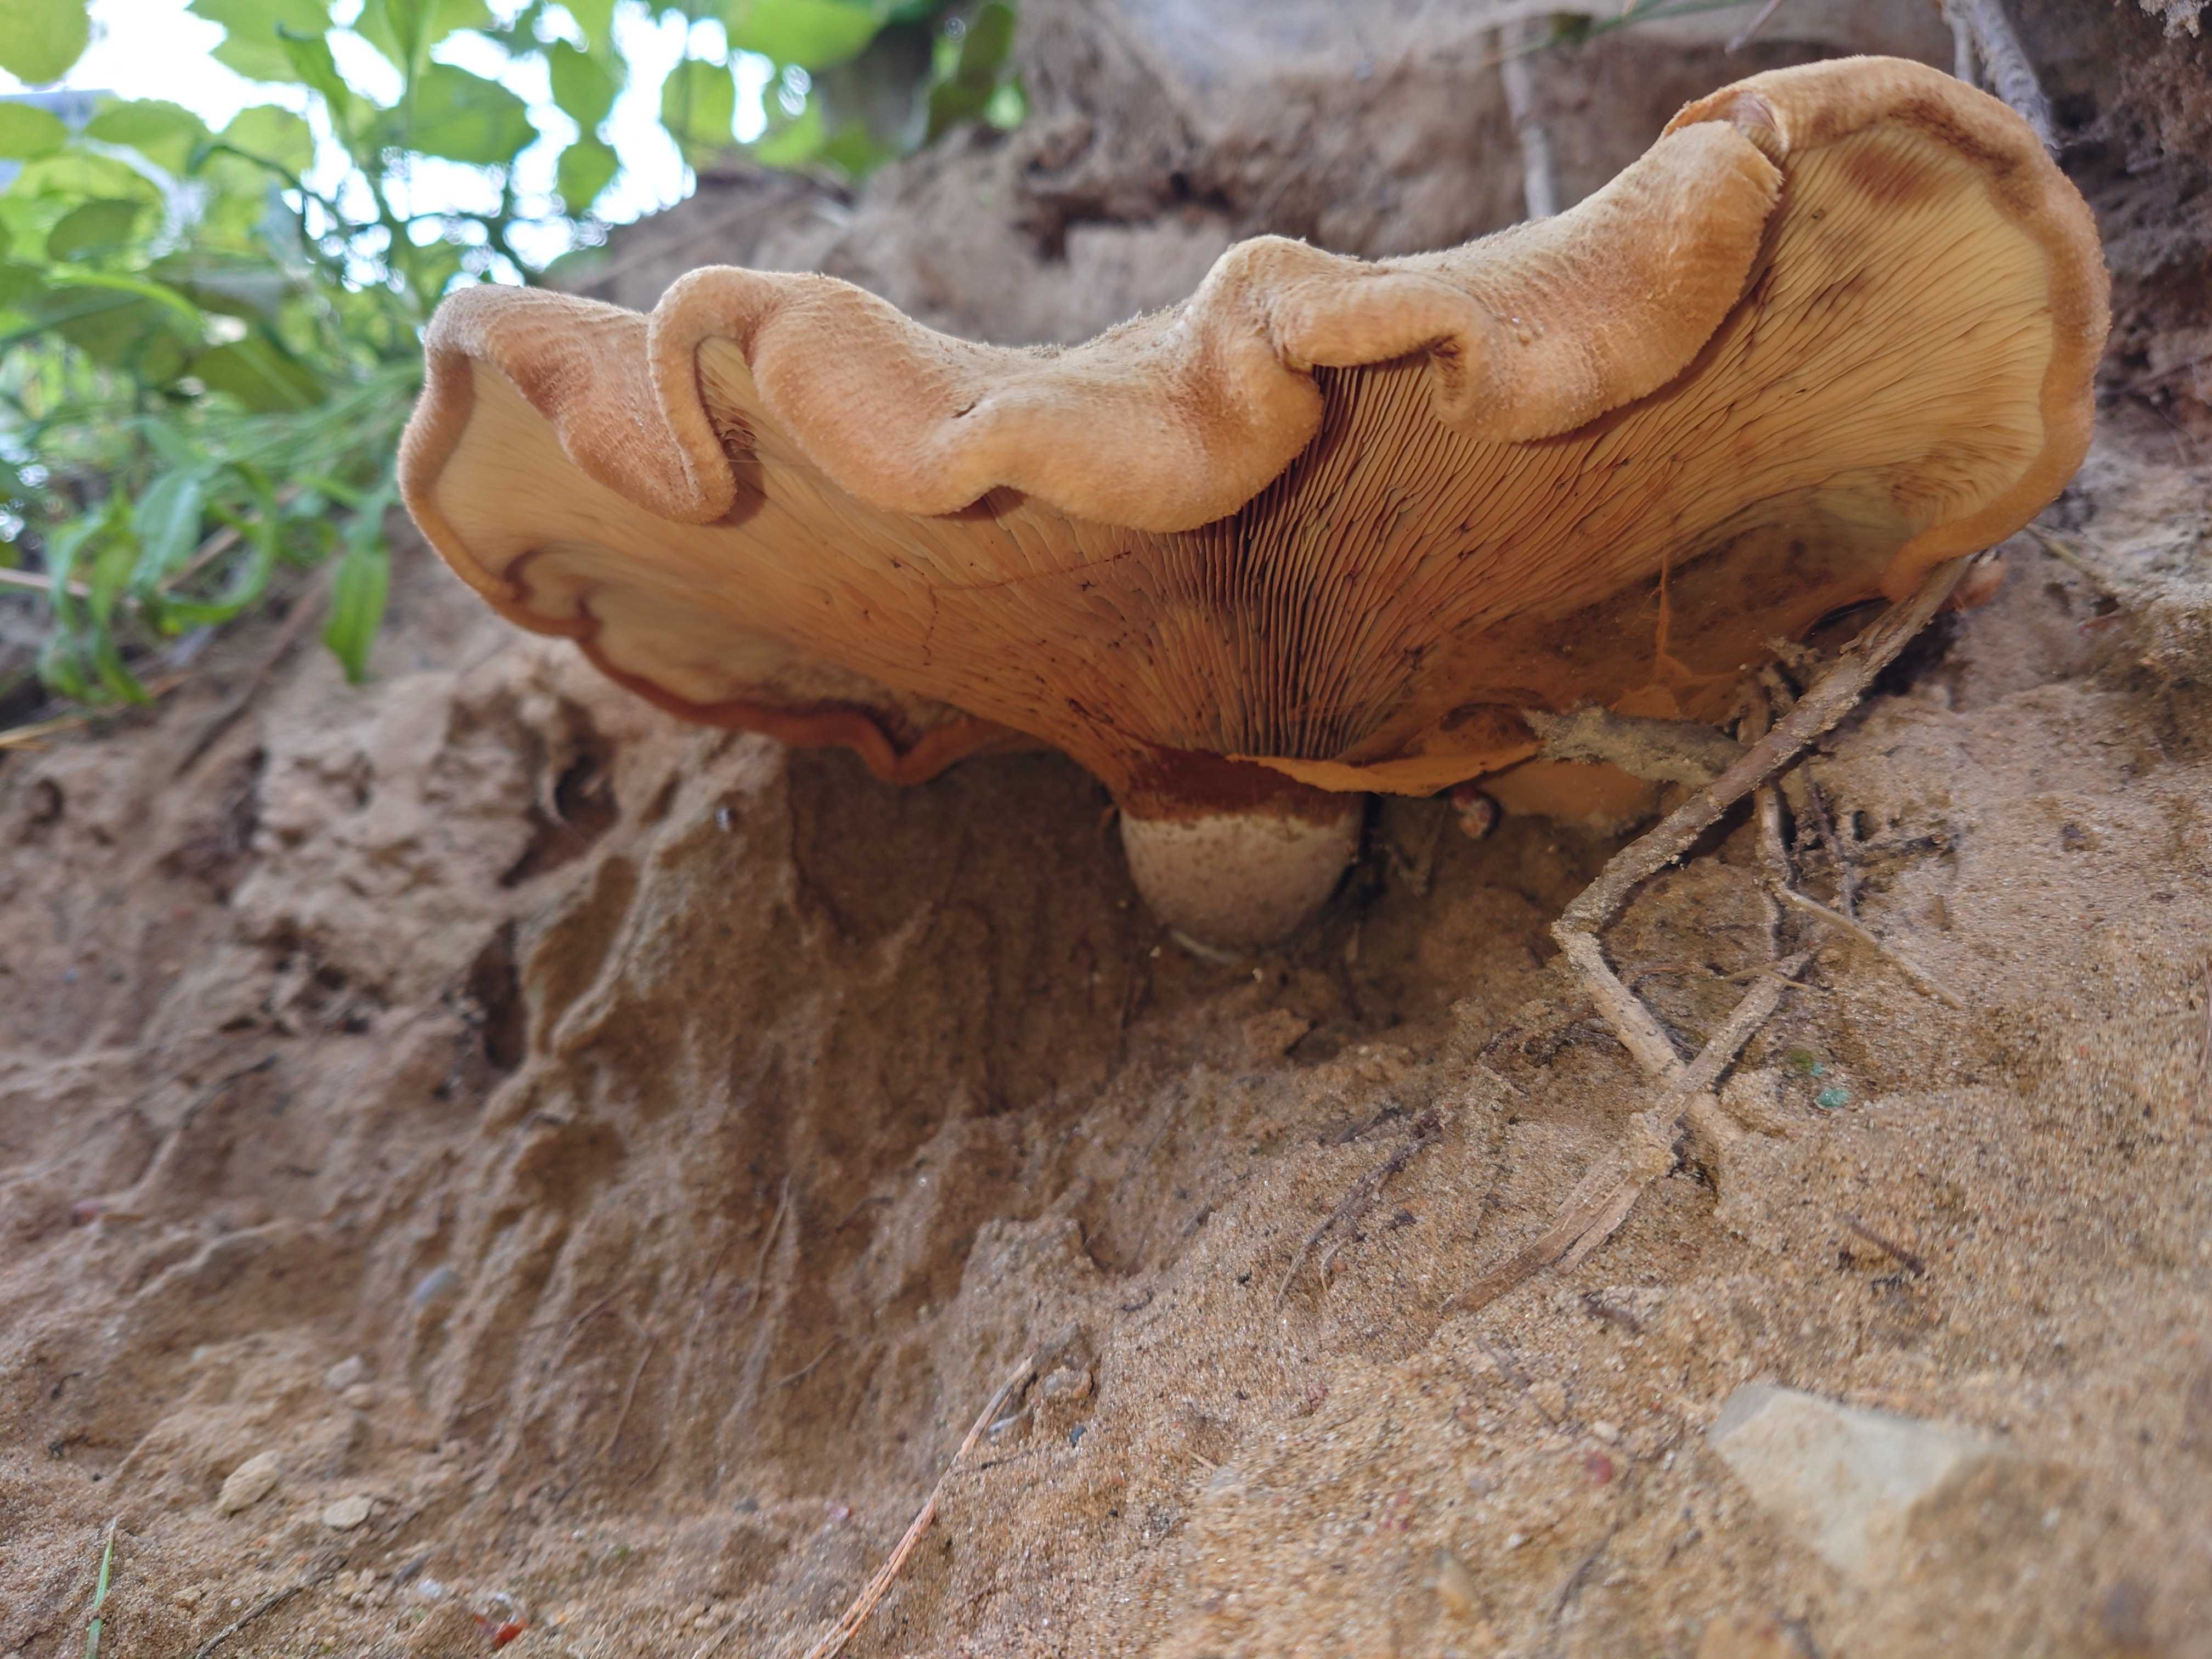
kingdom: Fungi
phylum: Basidiomycota
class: Agaricomycetes
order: Boletales
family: Paxillaceae
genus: Paxillus
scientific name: Paxillus
